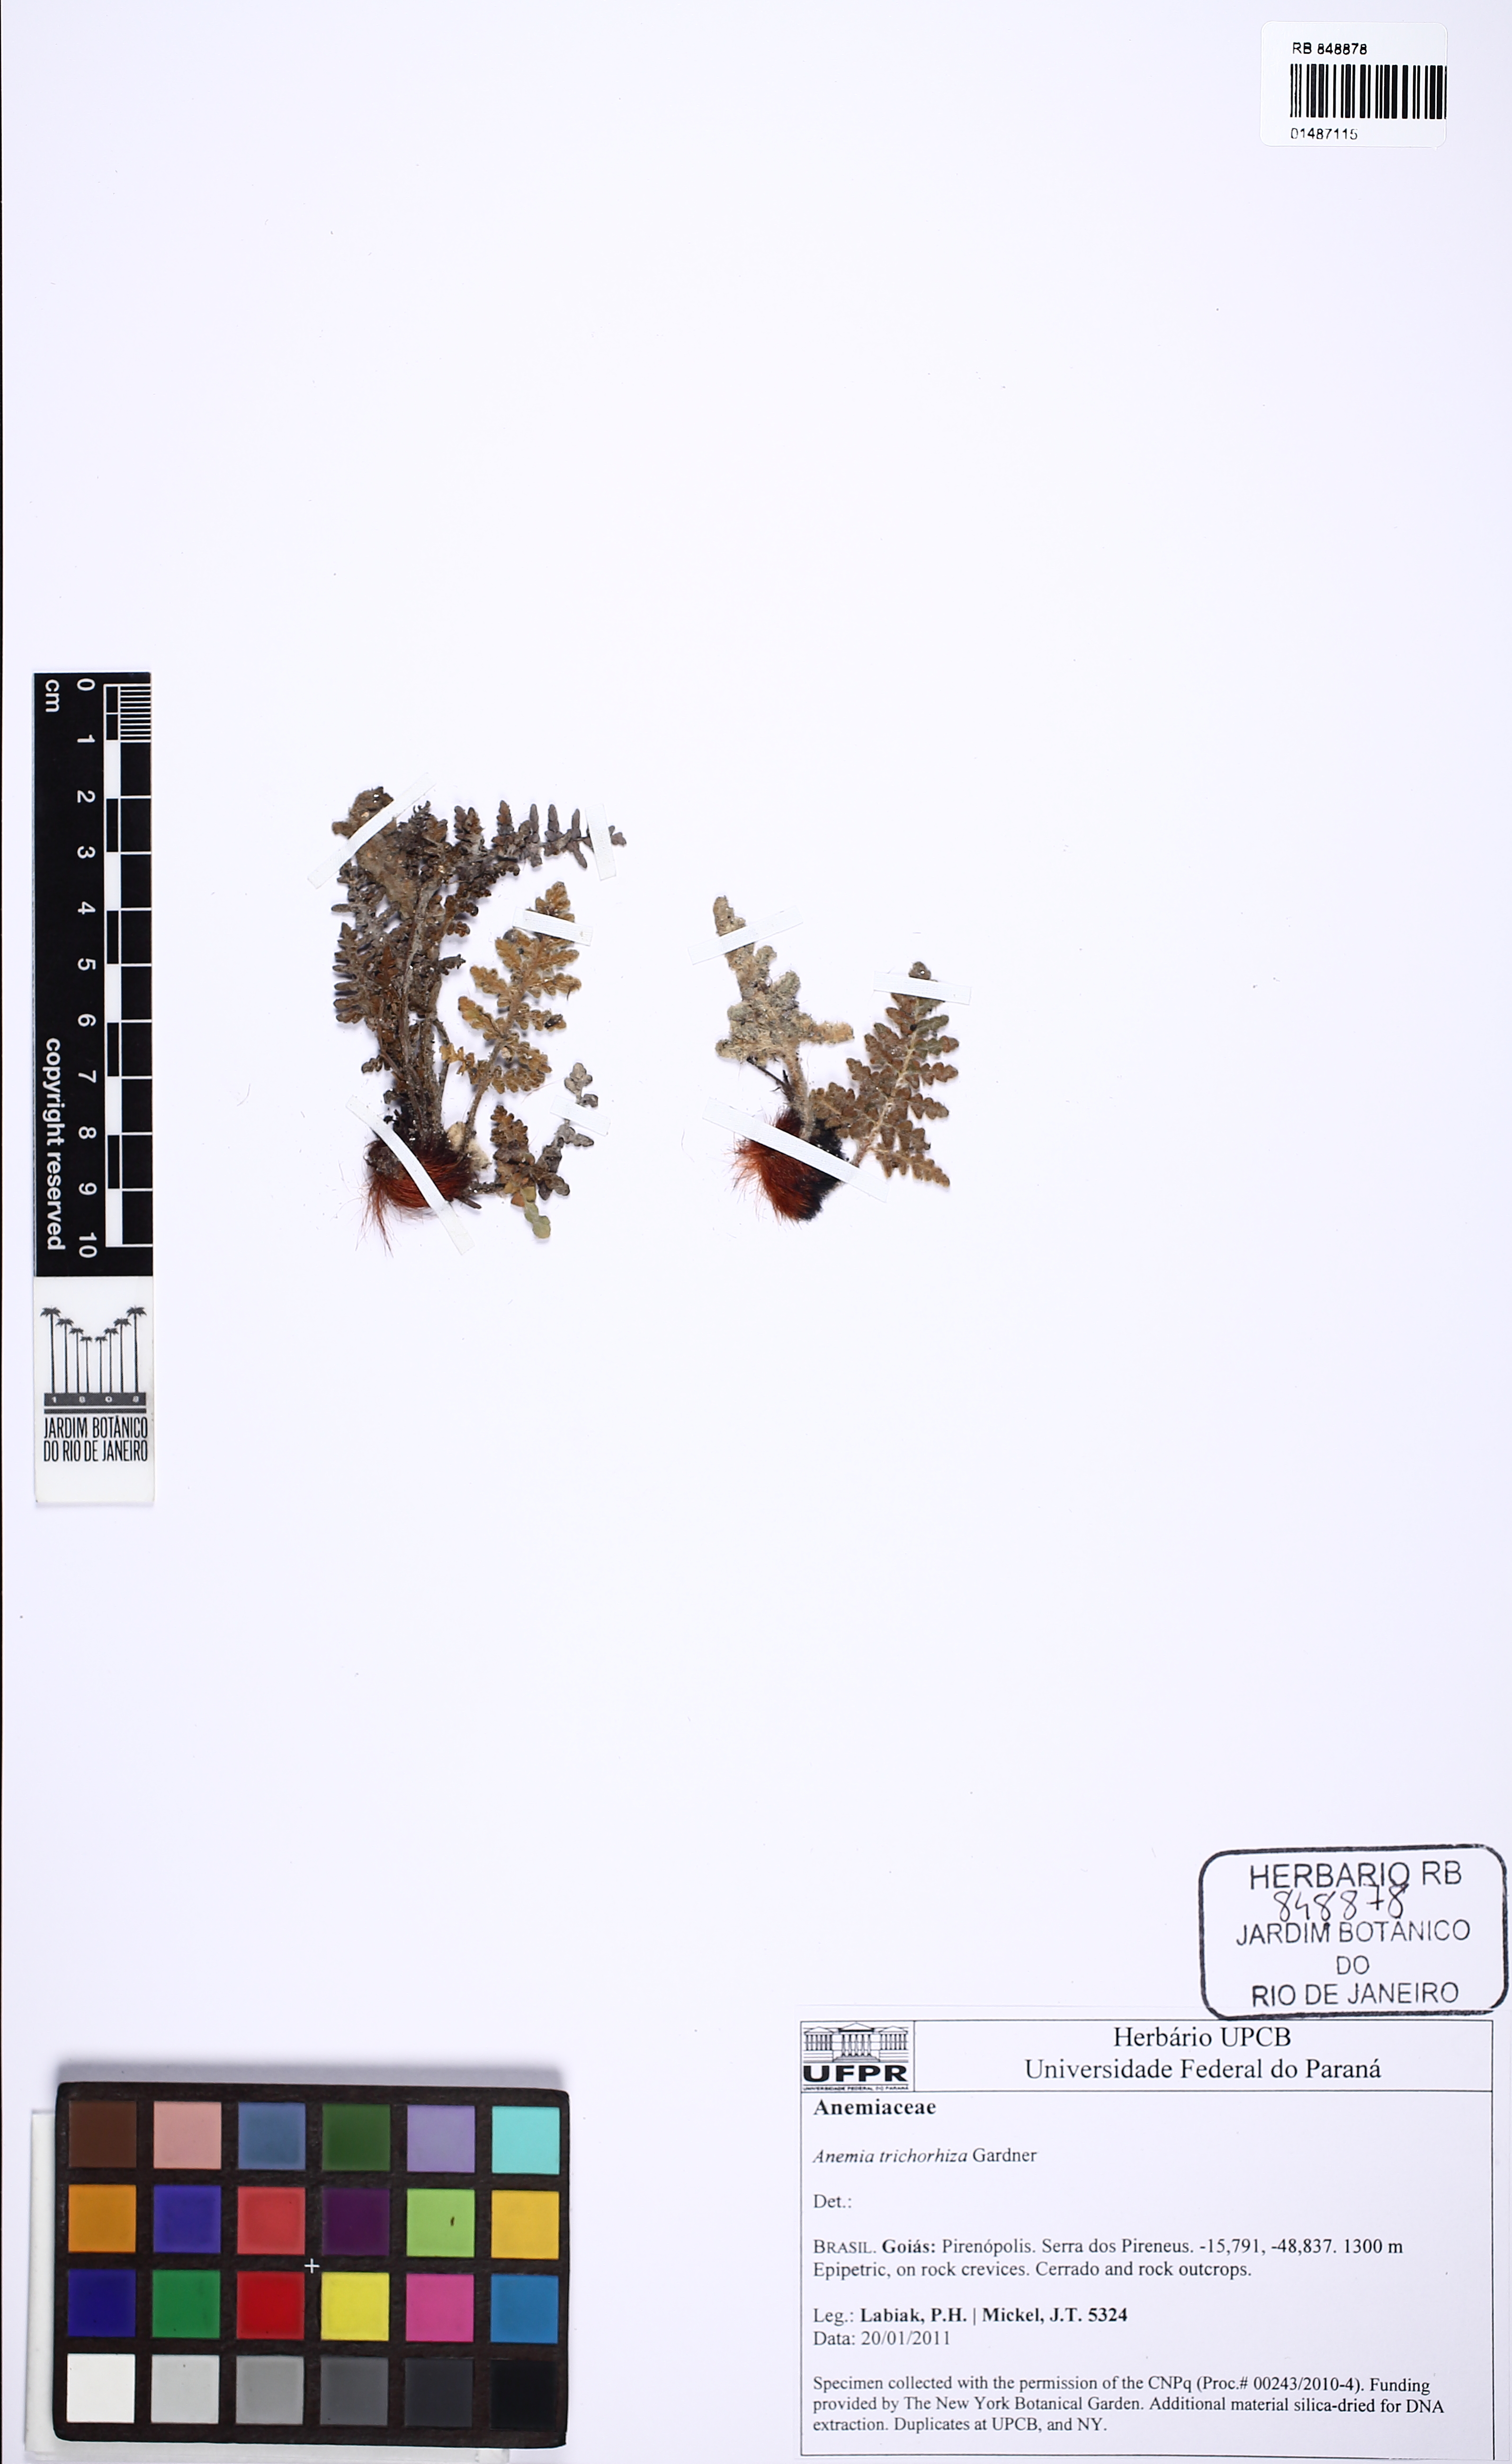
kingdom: Plantae
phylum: Tracheophyta
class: Polypodiopsida
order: Schizaeales
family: Anemiaceae
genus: Anemia
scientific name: Anemia trichorhiza
